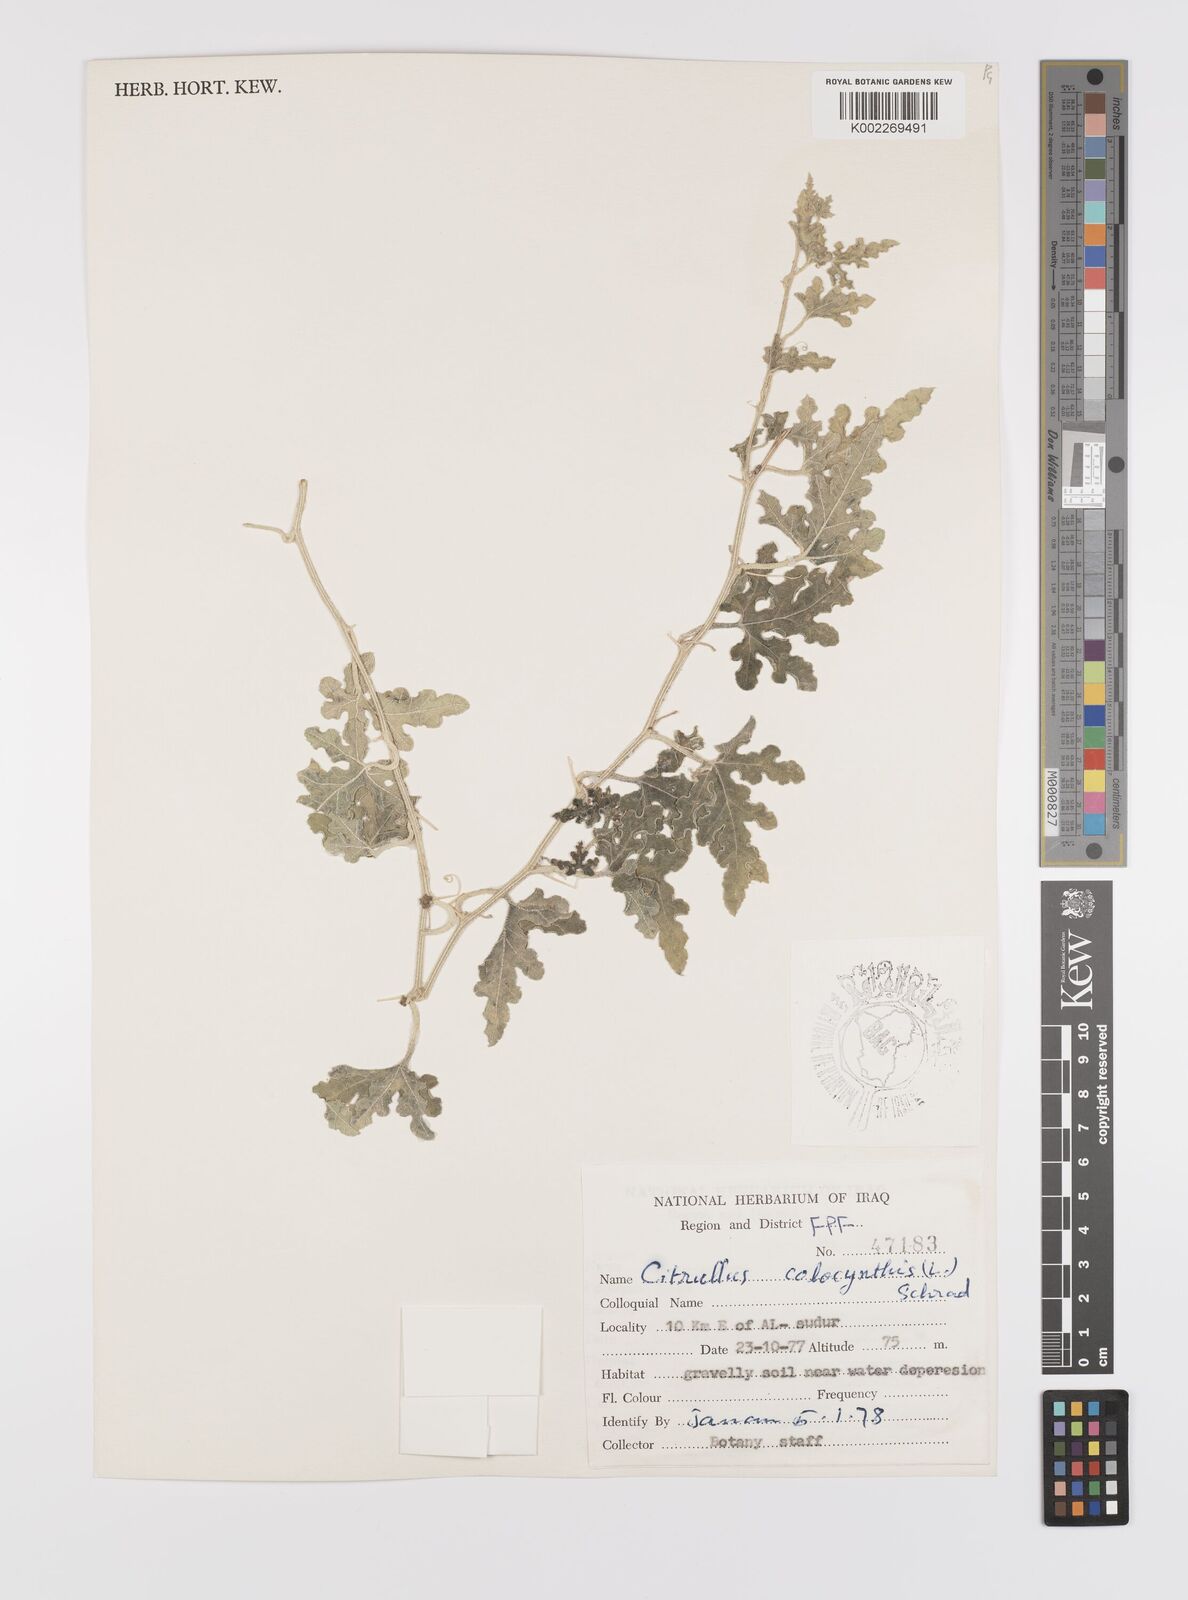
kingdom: Plantae
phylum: Tracheophyta
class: Magnoliopsida
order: Cucurbitales
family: Cucurbitaceae
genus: Citrullus
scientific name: Citrullus colocynthis
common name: Colocynth
